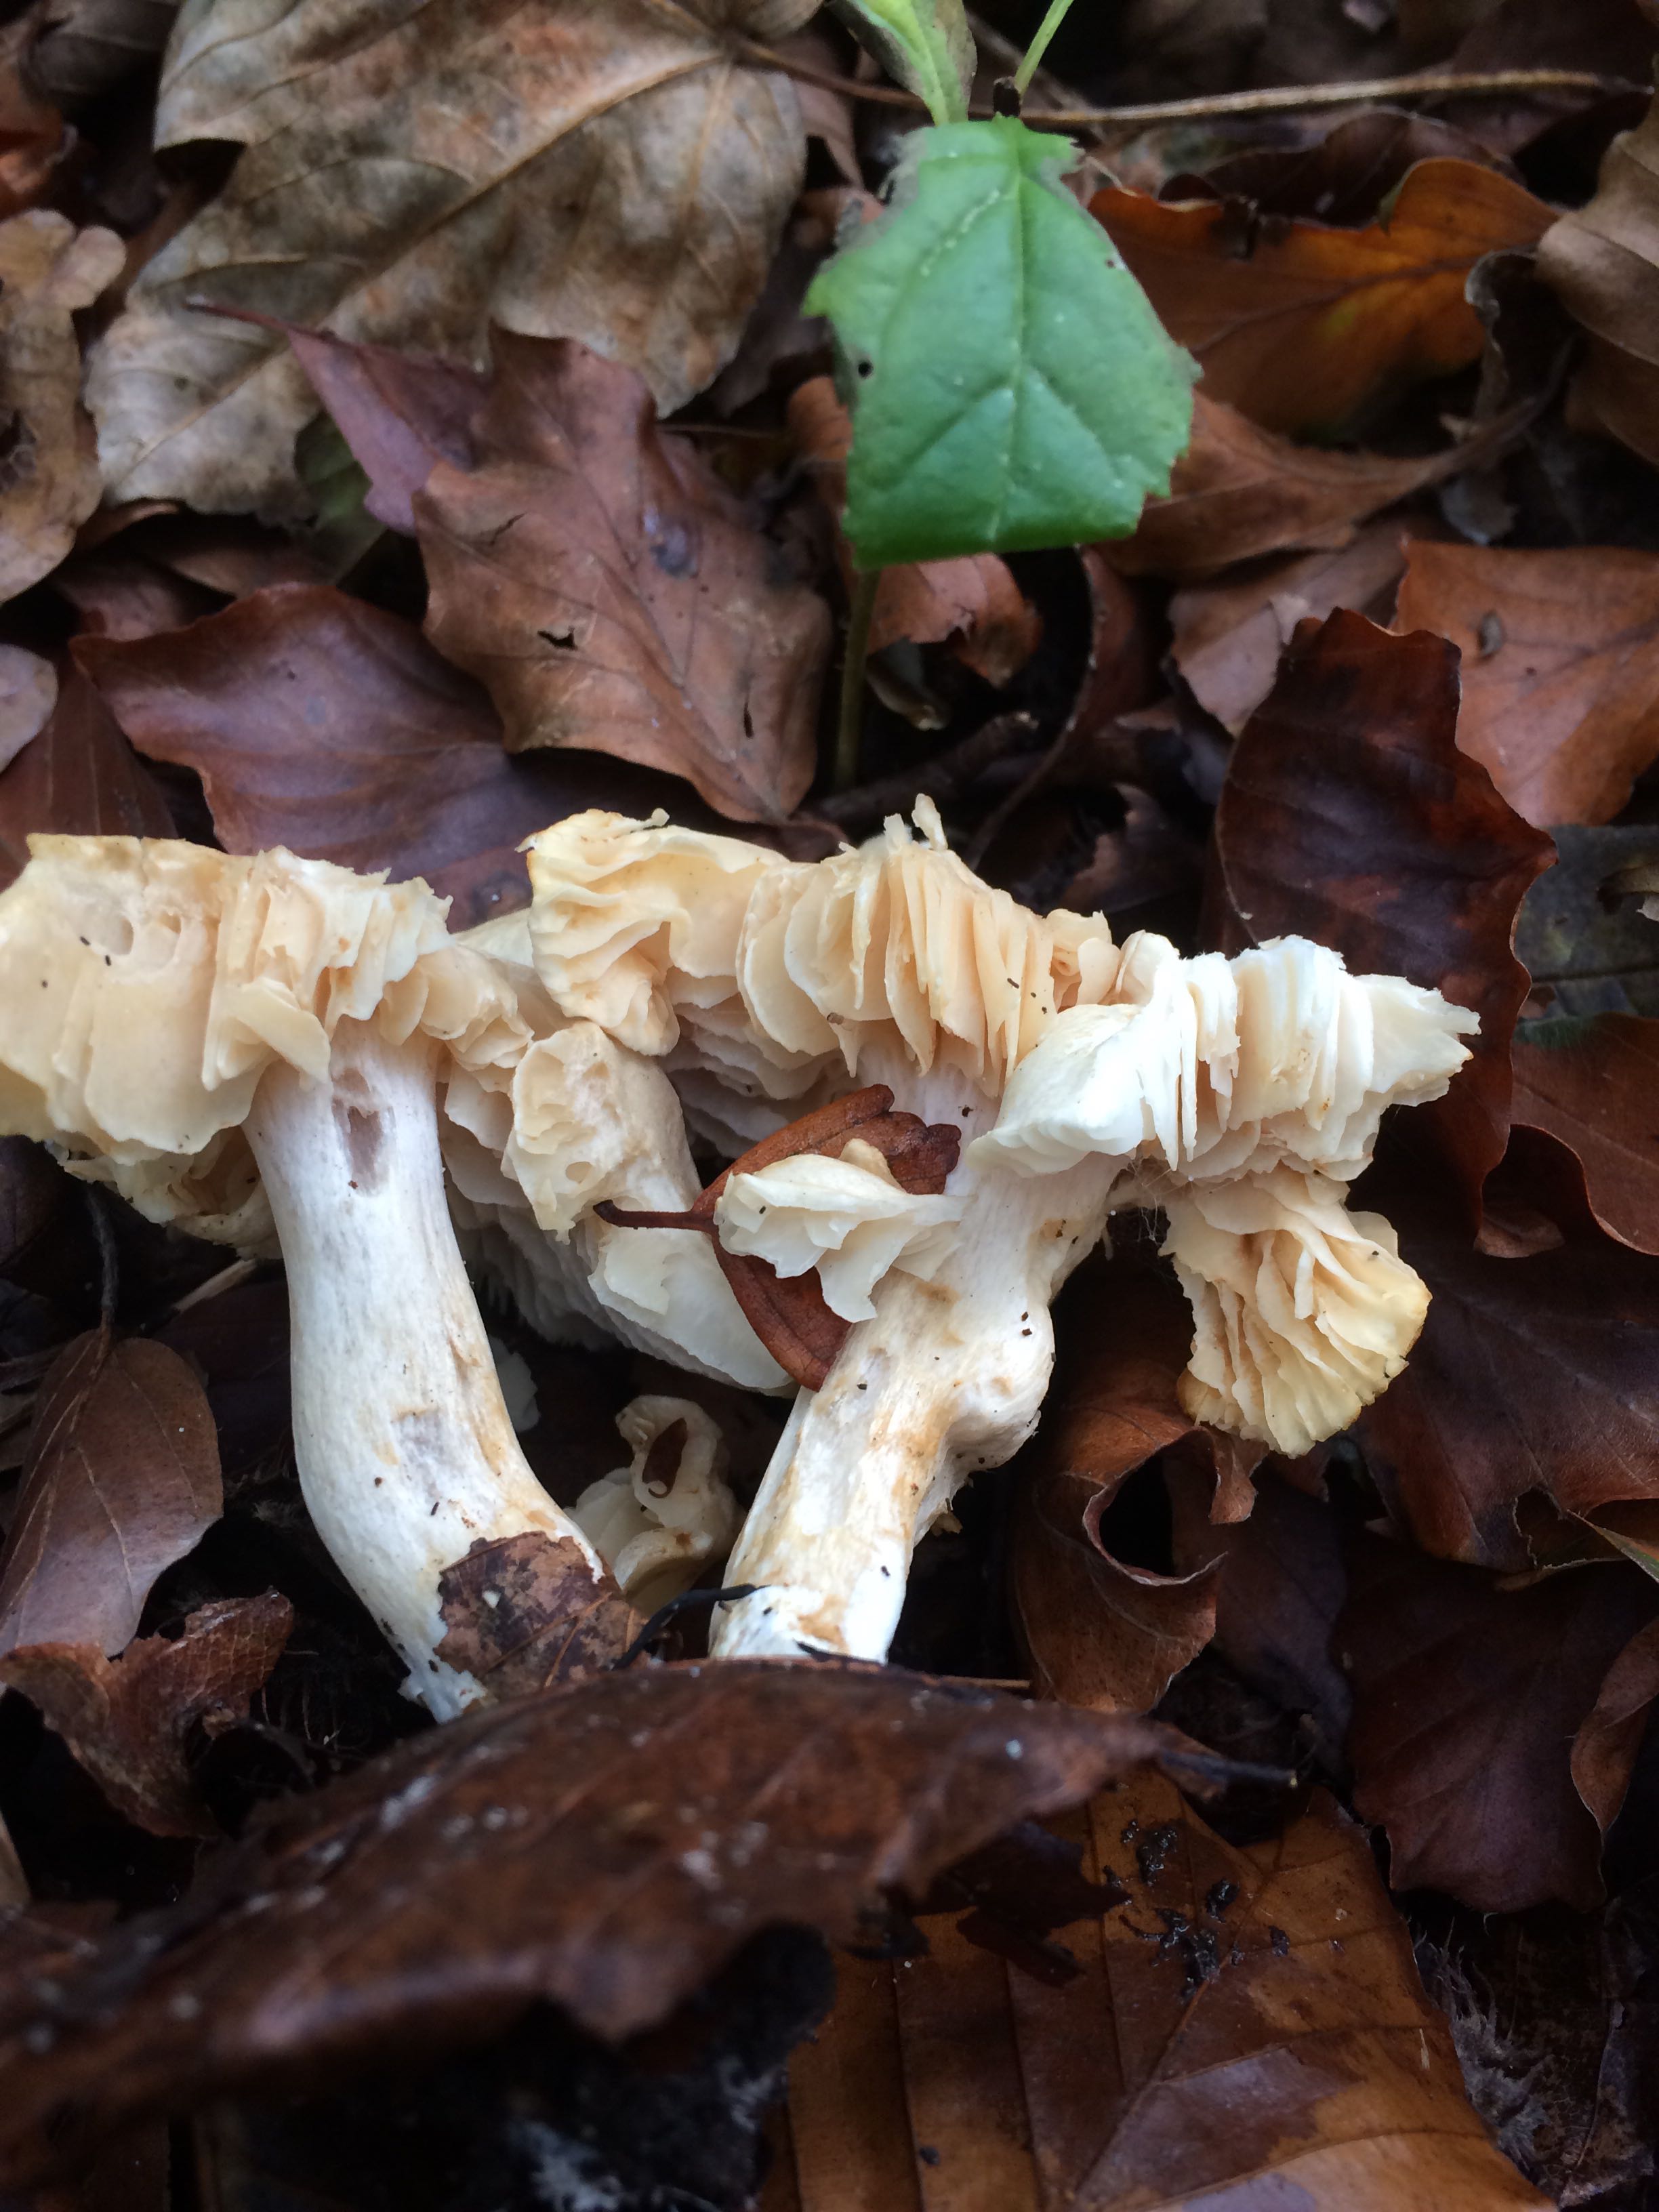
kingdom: Fungi
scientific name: Fungi
